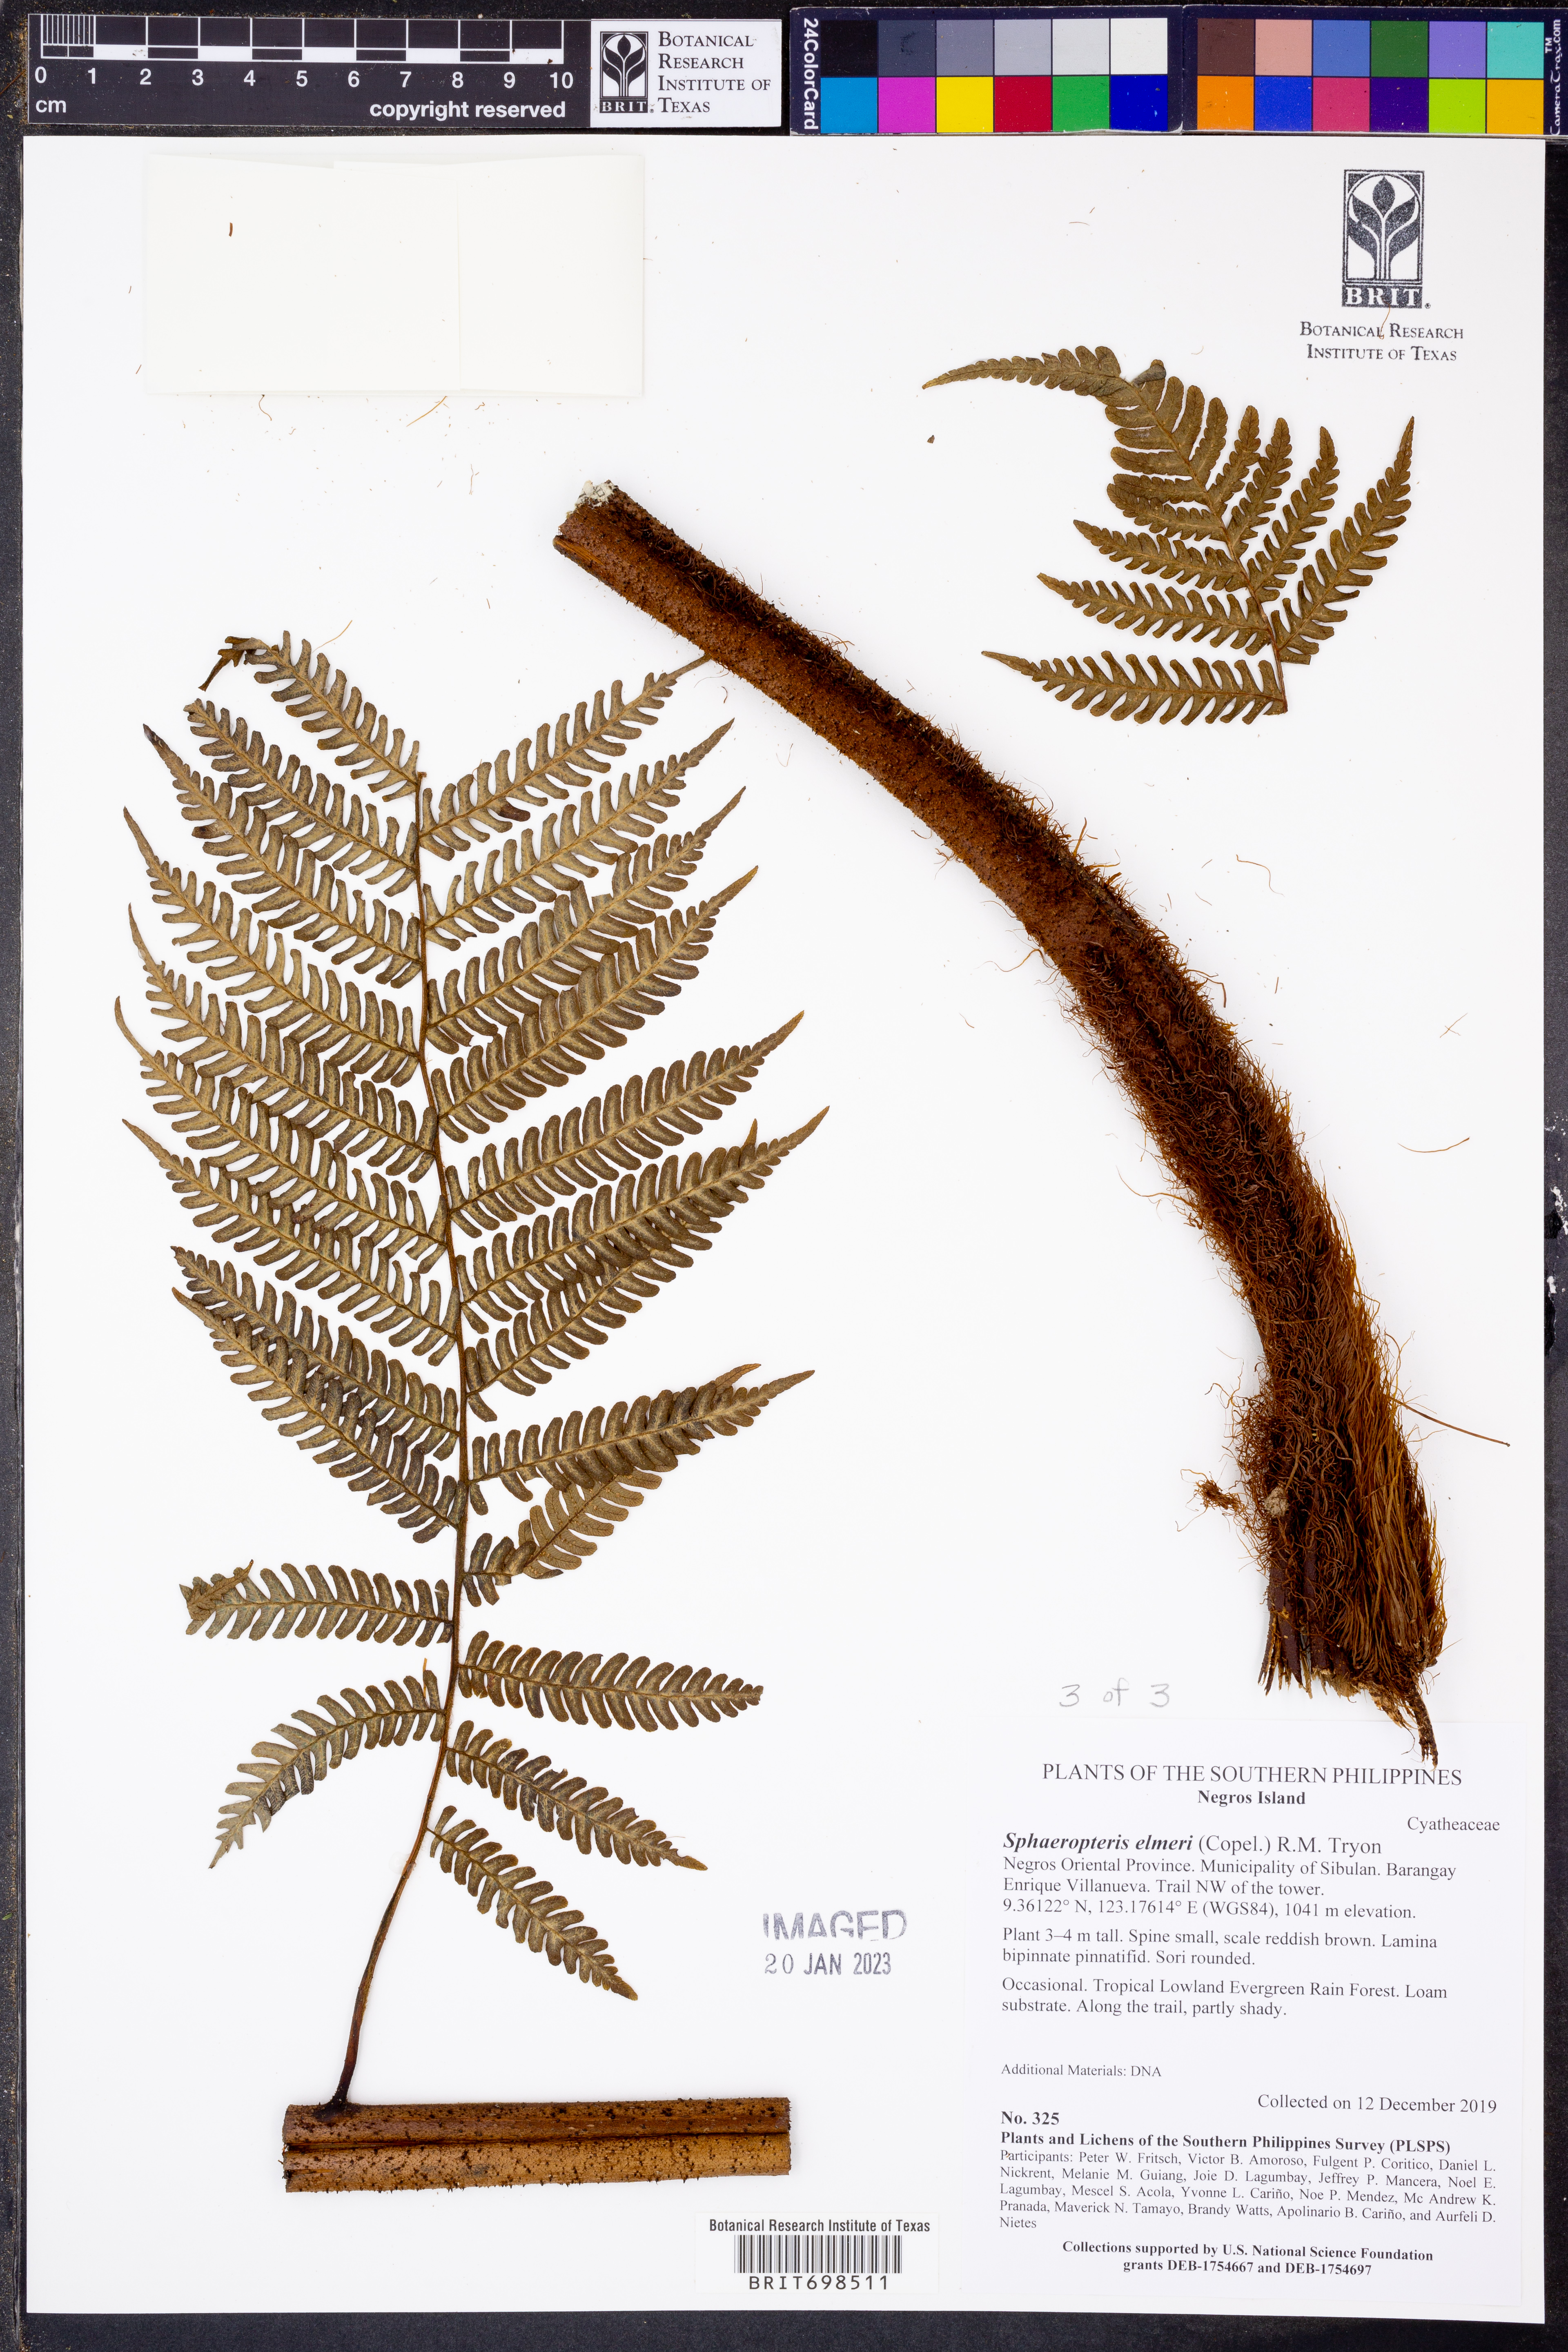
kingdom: Plantae
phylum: Tracheophyta
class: Polypodiopsida
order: Cyatheales
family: Cyatheaceae
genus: Sphaeropteris
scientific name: Sphaeropteris elmeri
